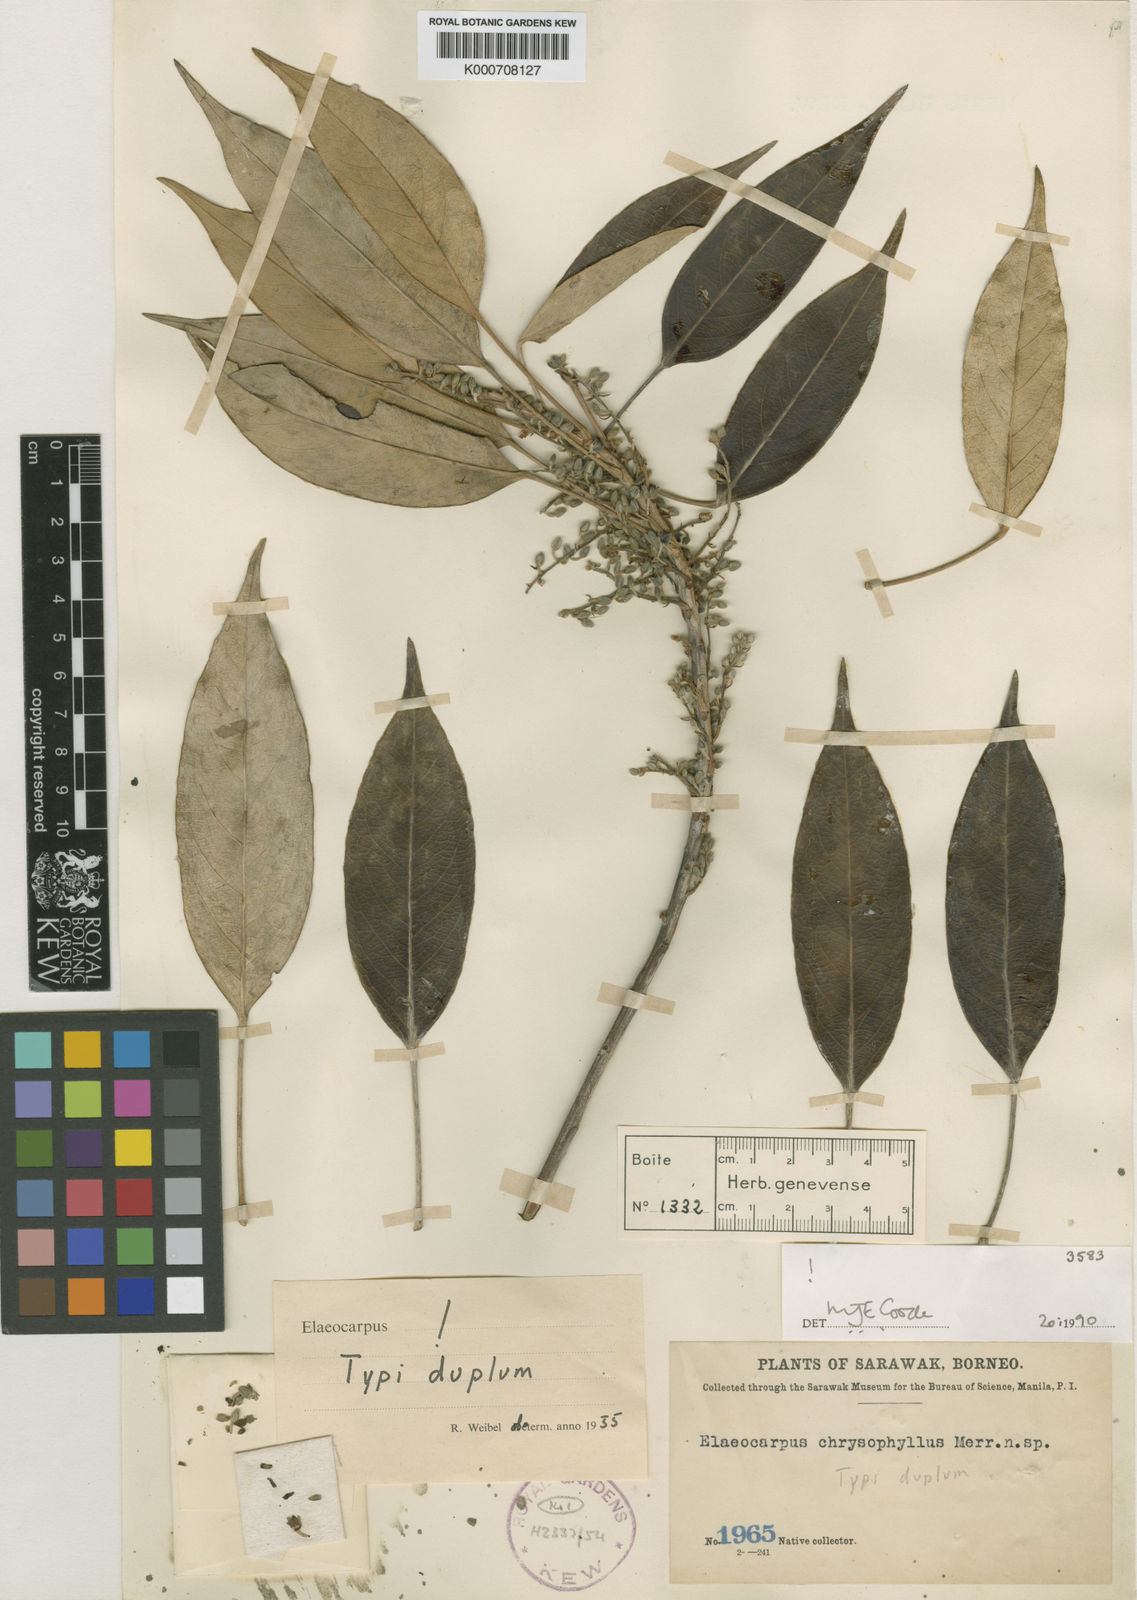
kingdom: Plantae
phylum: Tracheophyta
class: Magnoliopsida
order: Oxalidales
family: Elaeocarpaceae
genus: Elaeocarpus
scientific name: Elaeocarpus chrysophyllus
